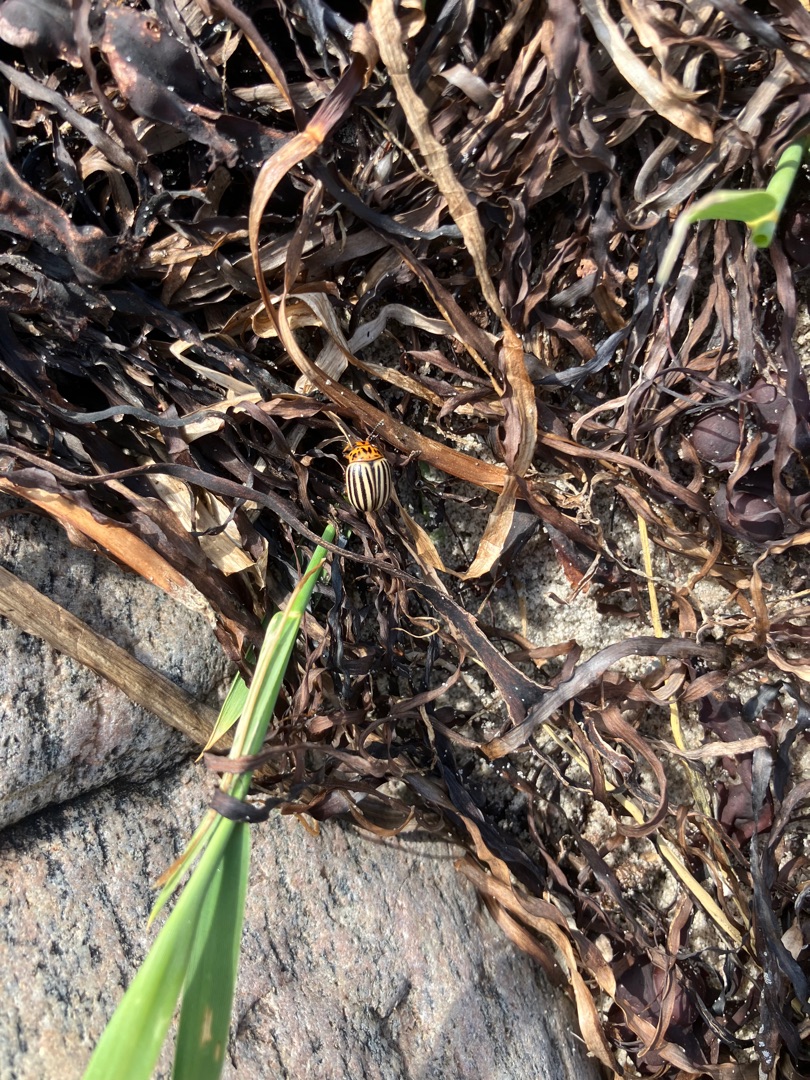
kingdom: Animalia
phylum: Arthropoda
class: Insecta
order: Coleoptera
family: Chrysomelidae
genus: Leptinotarsa
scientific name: Leptinotarsa decemlineata
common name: Coloradobille
